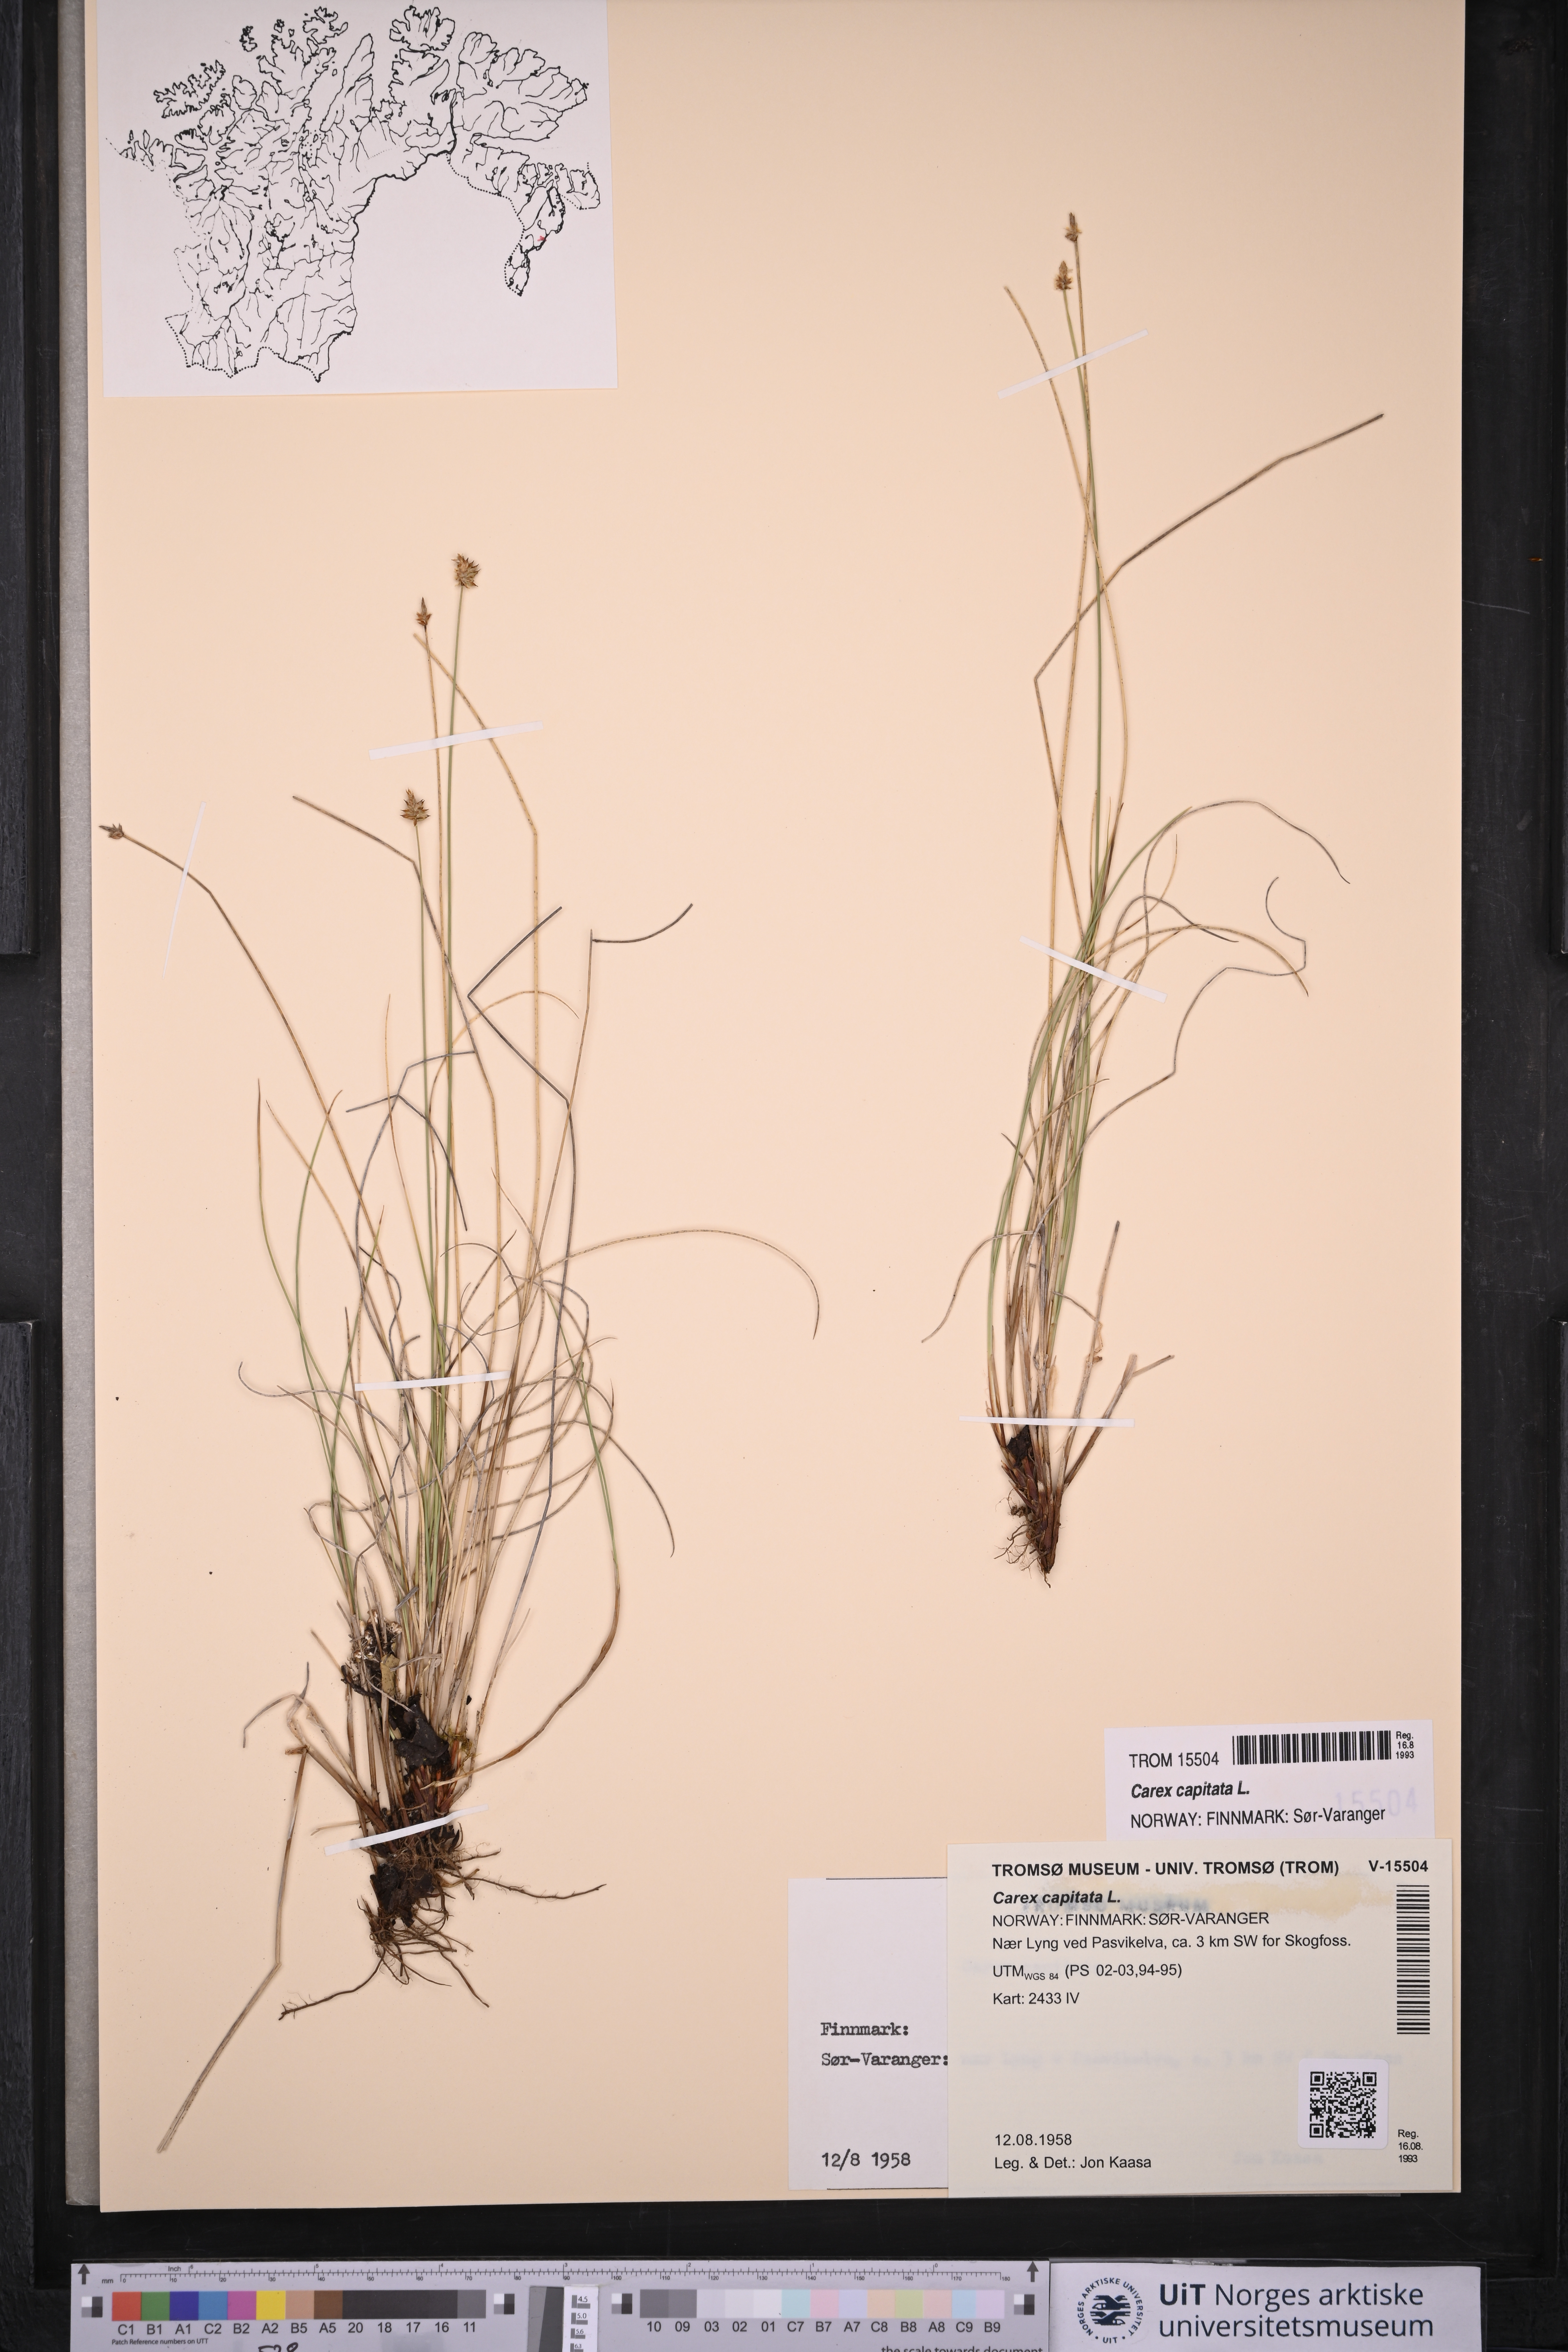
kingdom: Plantae
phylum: Tracheophyta
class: Liliopsida
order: Poales
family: Cyperaceae
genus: Carex
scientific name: Carex capitata
